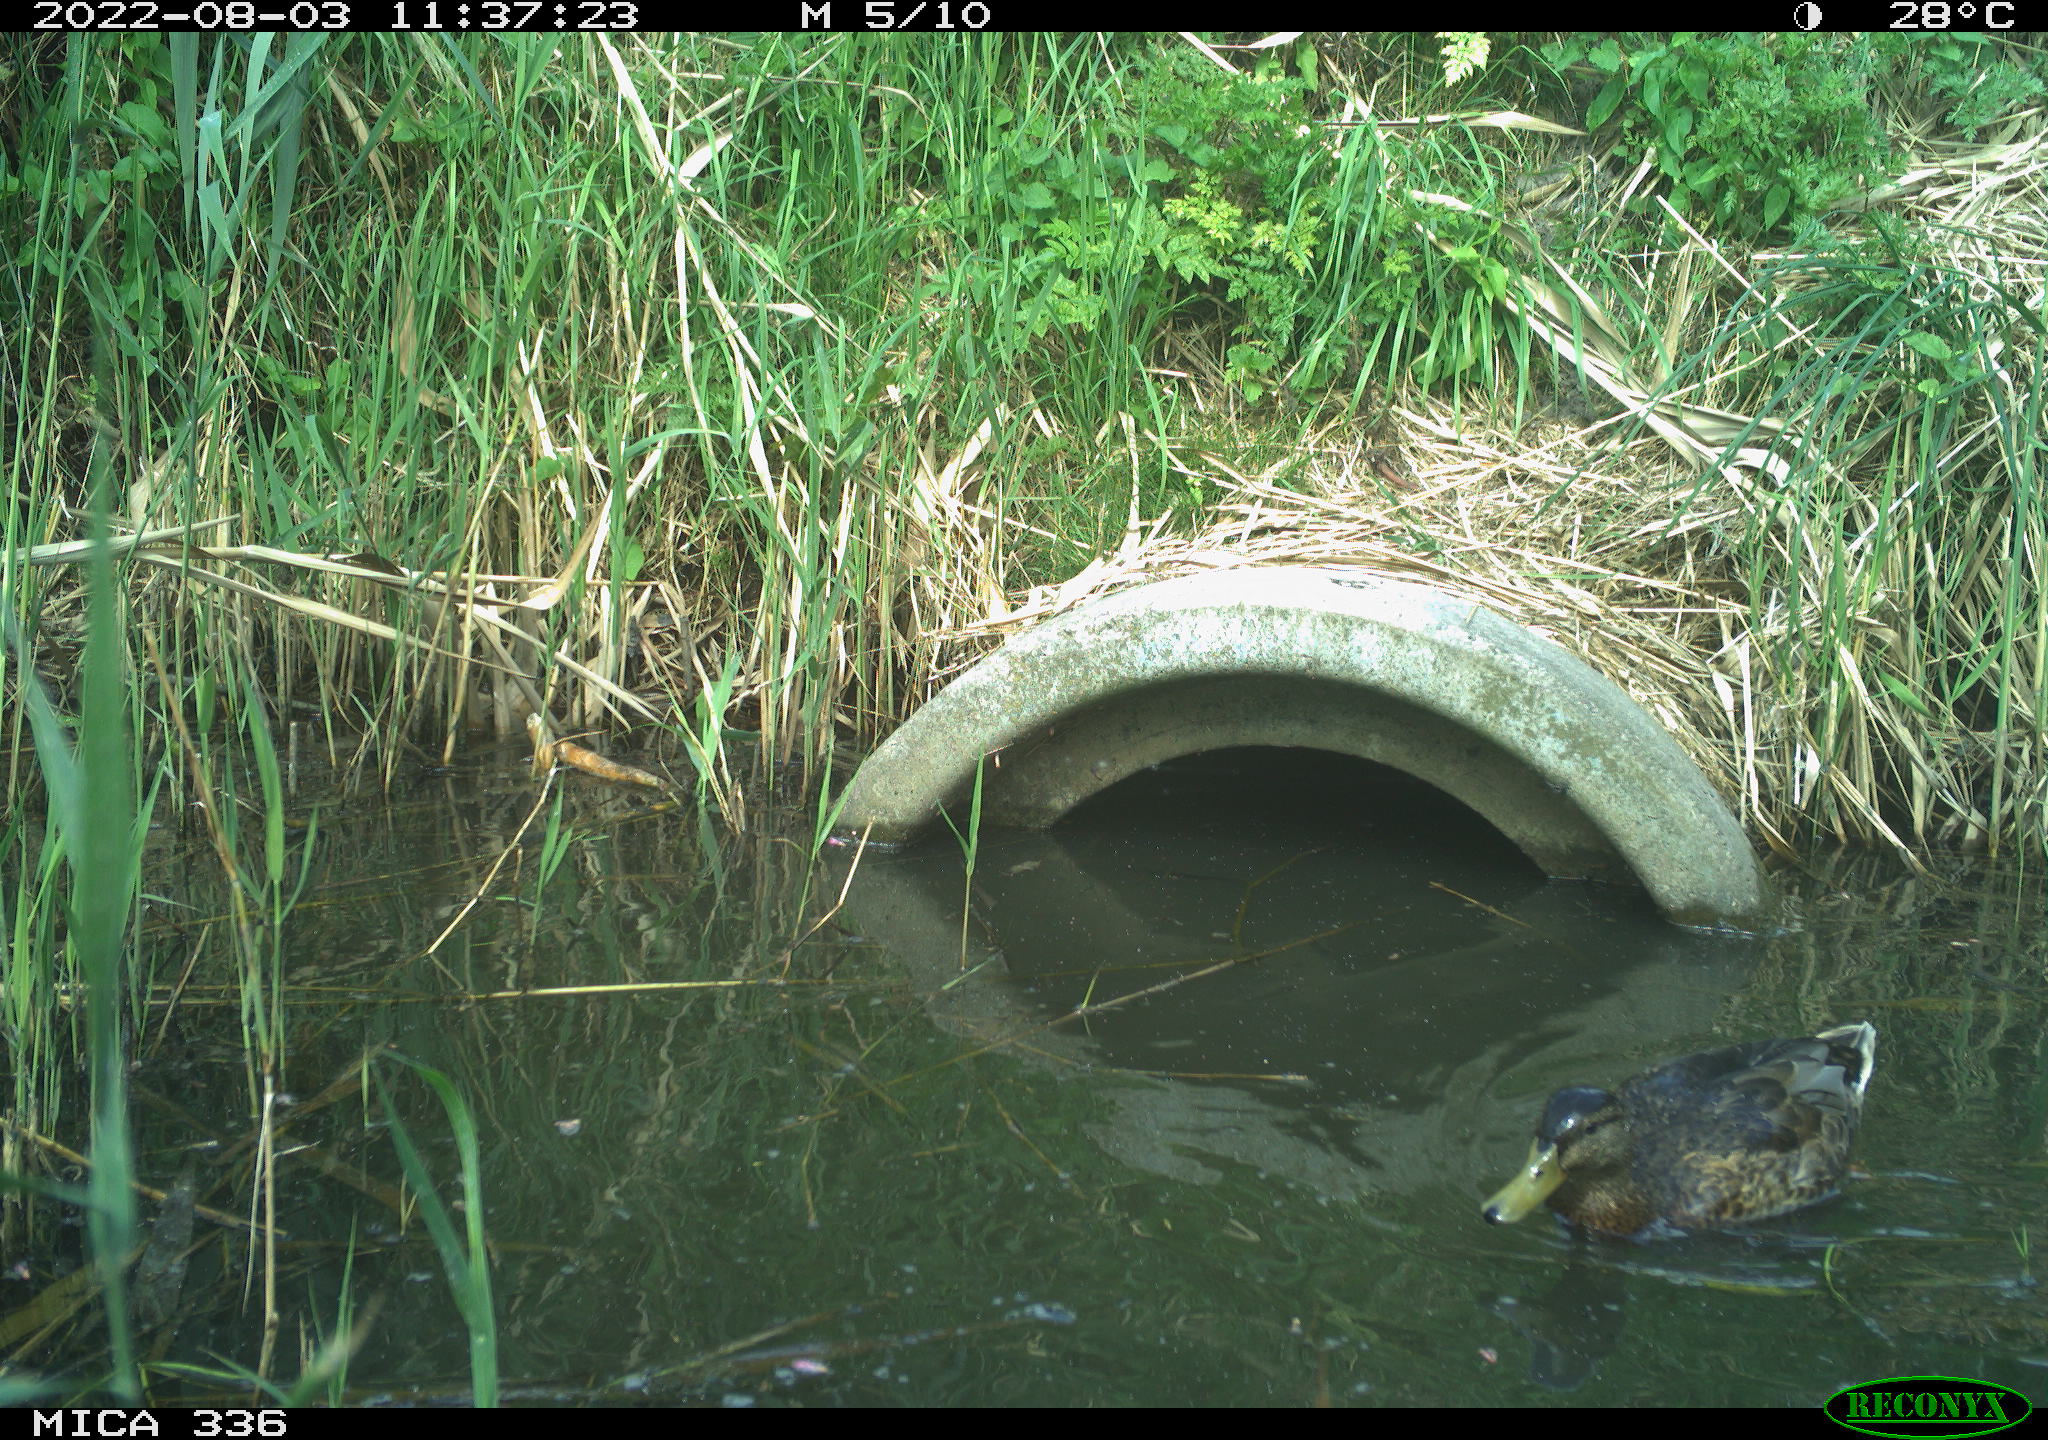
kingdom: Animalia
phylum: Chordata
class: Aves
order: Anseriformes
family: Anatidae
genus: Anas
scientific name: Anas platyrhynchos
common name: Mallard
